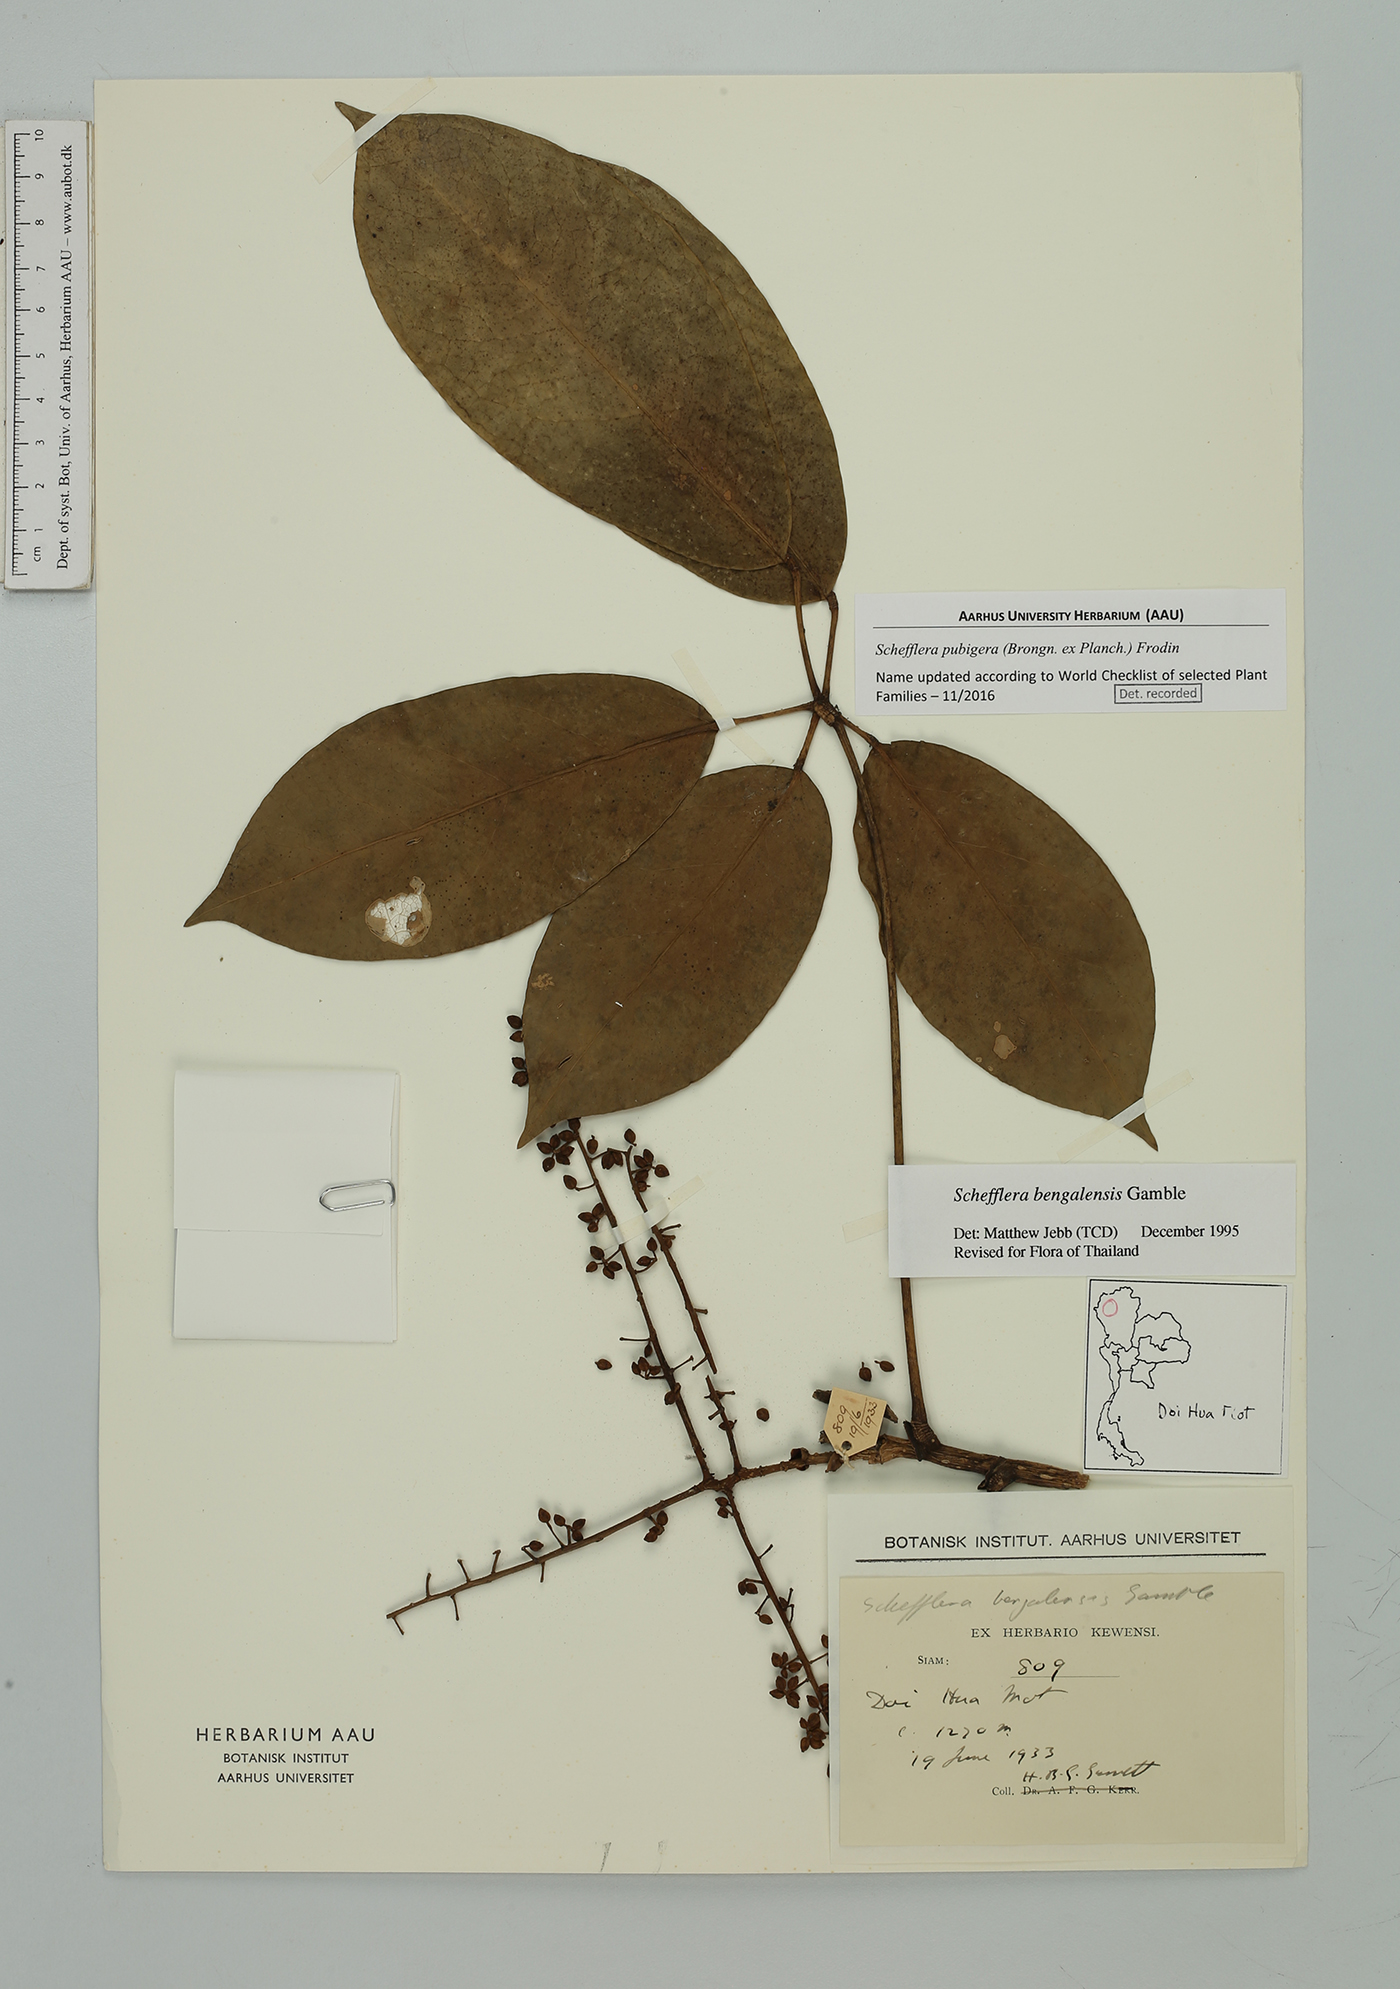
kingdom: Plantae
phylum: Tracheophyta
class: Magnoliopsida
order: Apiales
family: Araliaceae
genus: Heptapleurum
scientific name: Heptapleurum ellipticum
